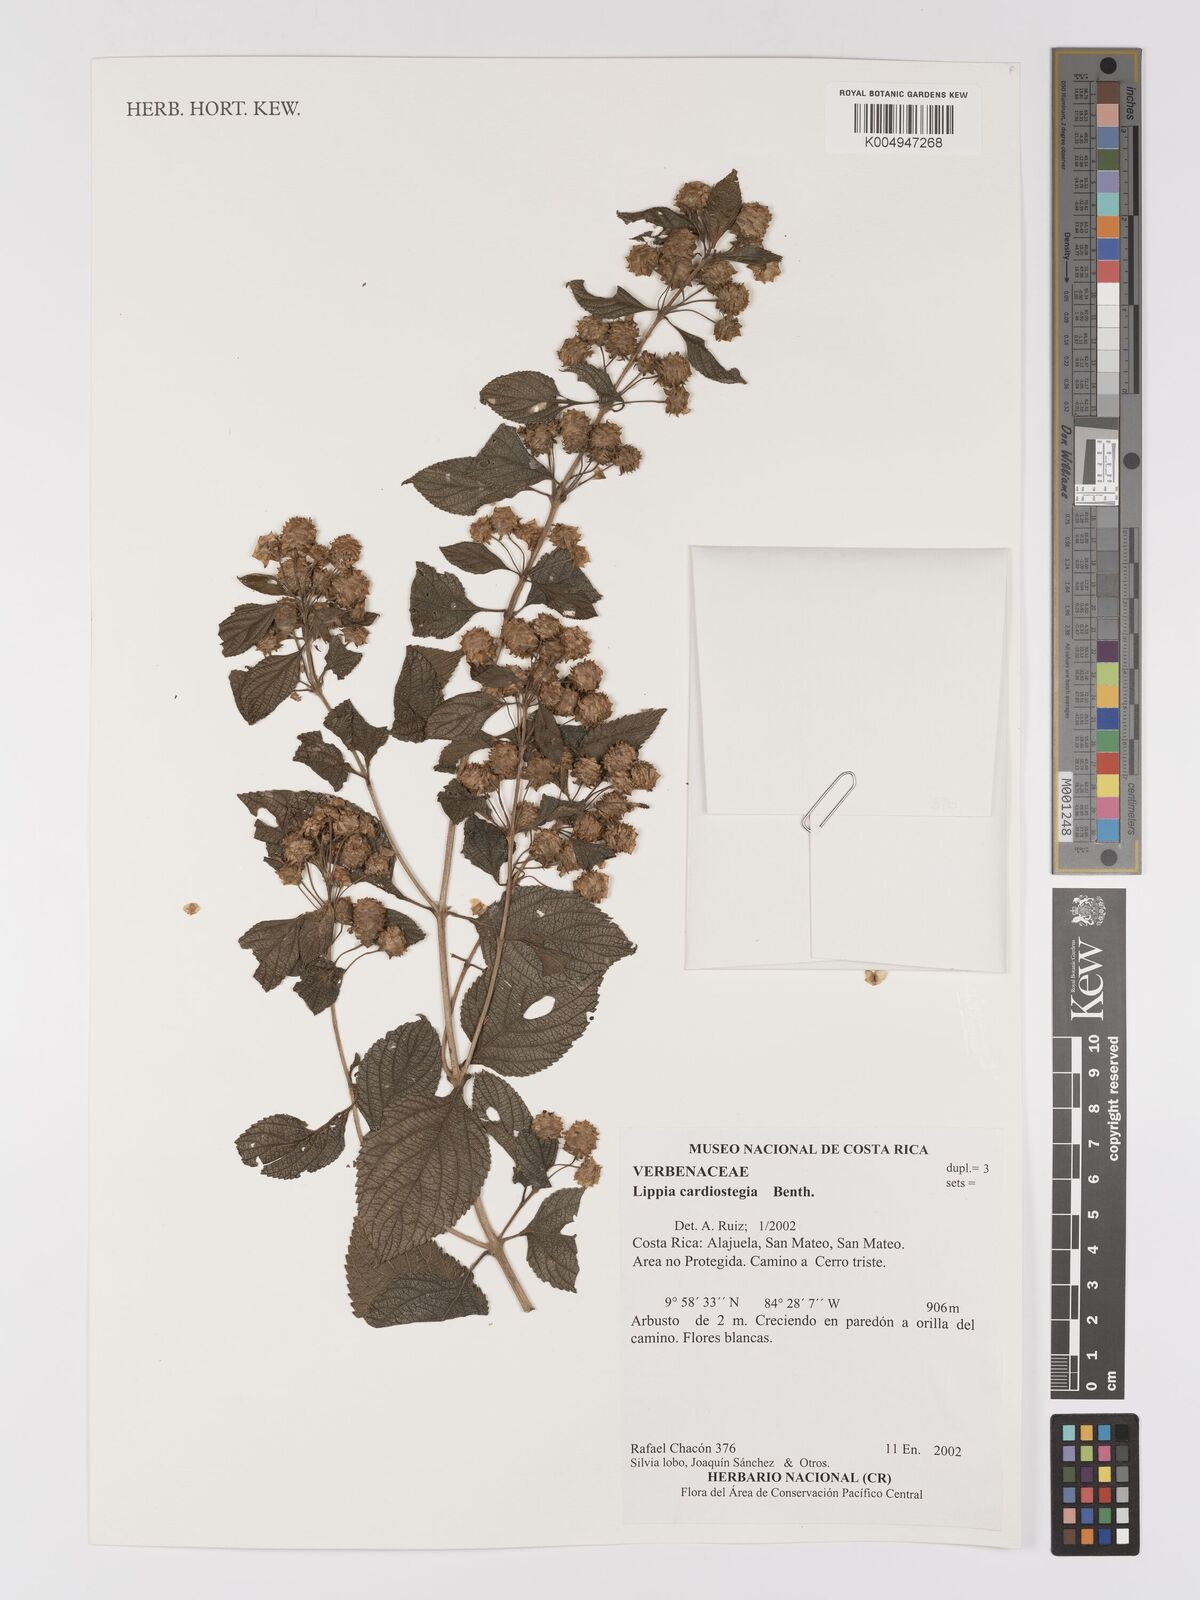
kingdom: Plantae
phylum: Tracheophyta
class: Magnoliopsida
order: Lamiales
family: Verbenaceae
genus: Lippia
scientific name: Lippia cardiostegia
